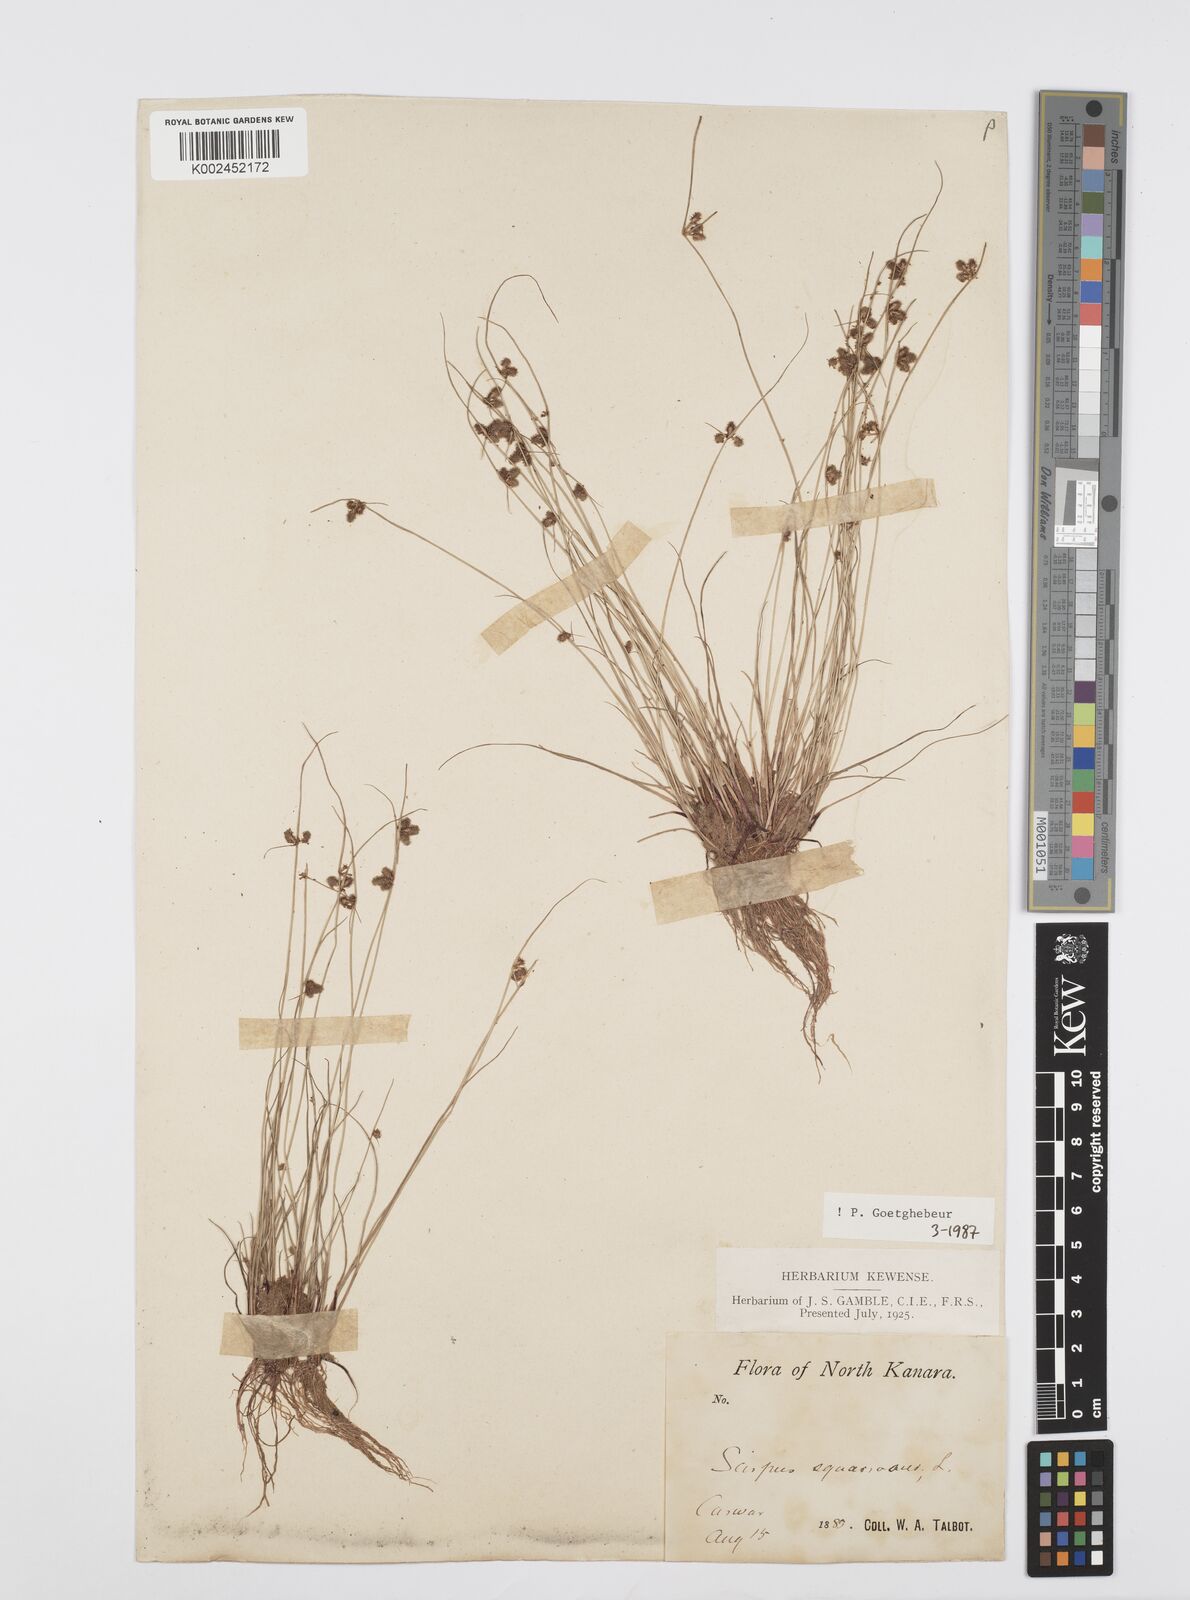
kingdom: Plantae
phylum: Tracheophyta
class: Liliopsida
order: Poales
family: Cyperaceae
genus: Cyperus
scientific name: Cyperus squarrosus
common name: Awned cyperus
